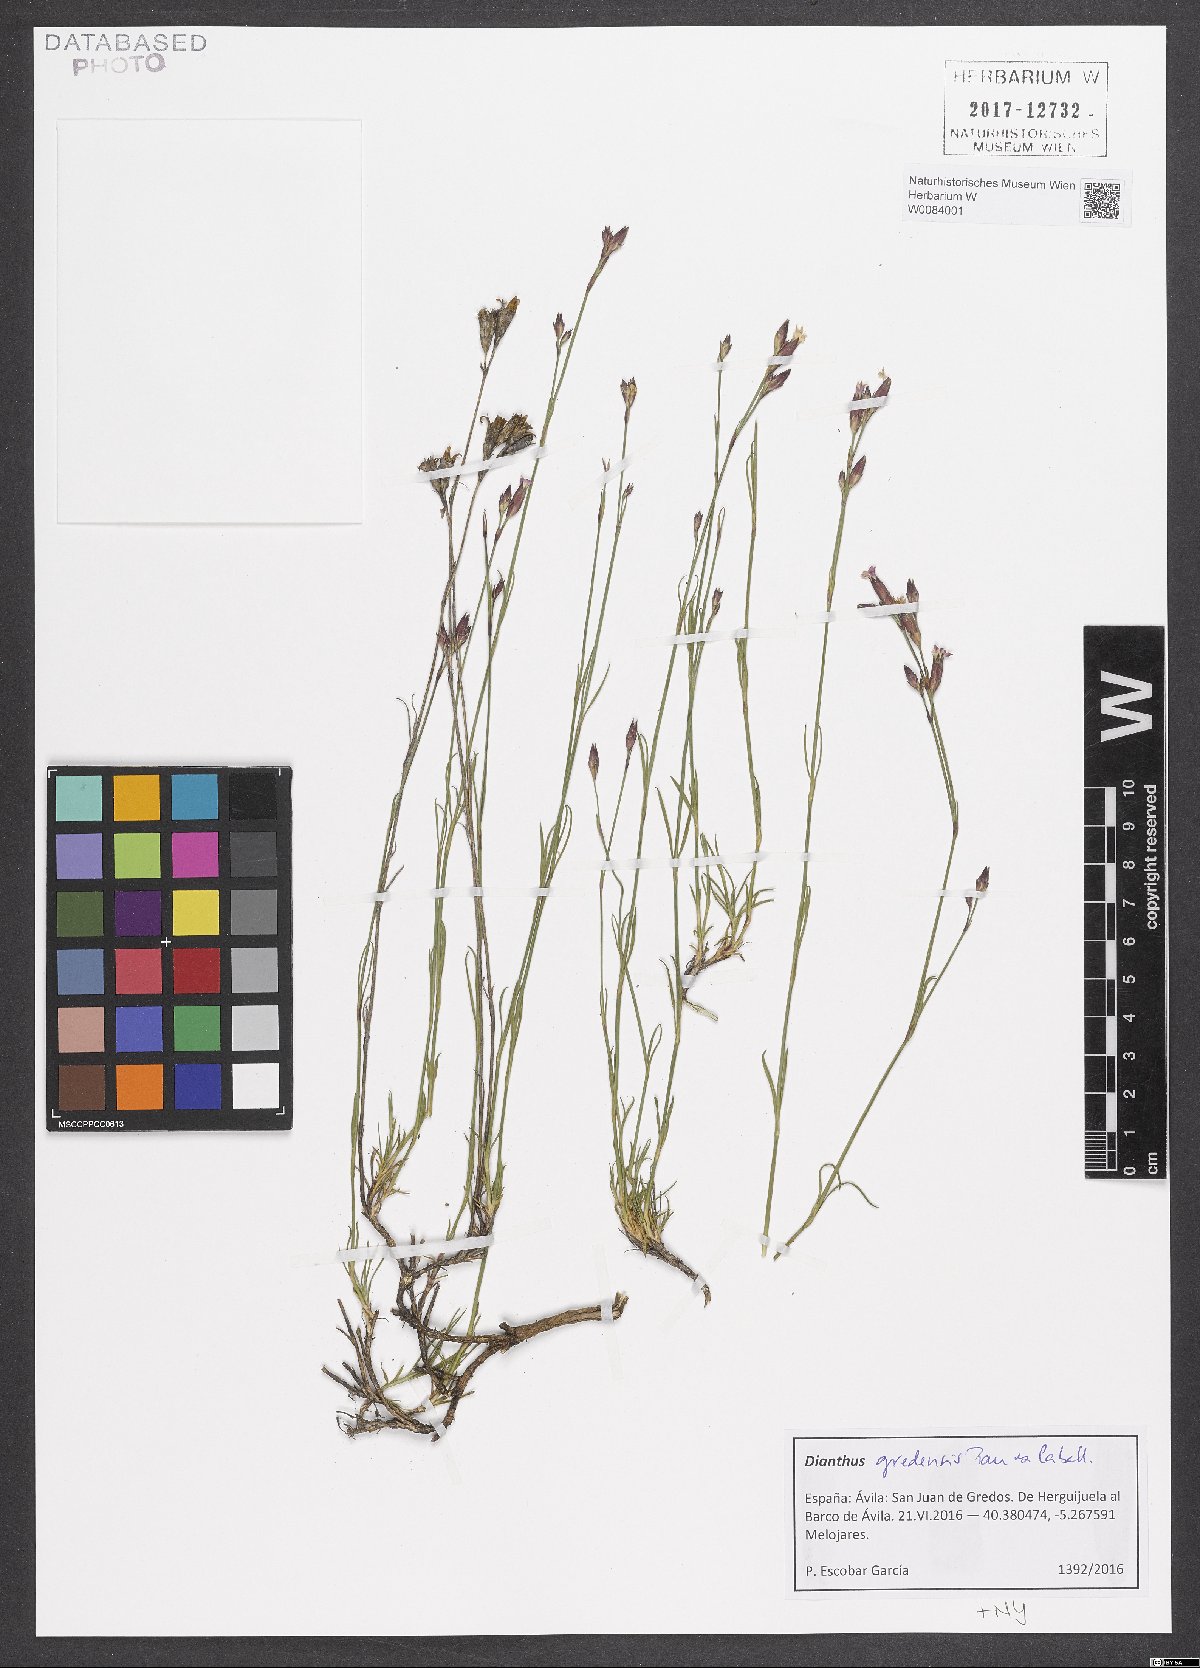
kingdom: Plantae
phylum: Tracheophyta
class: Magnoliopsida
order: Caryophyllales
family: Caryophyllaceae
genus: Dianthus
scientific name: Dianthus pungens
